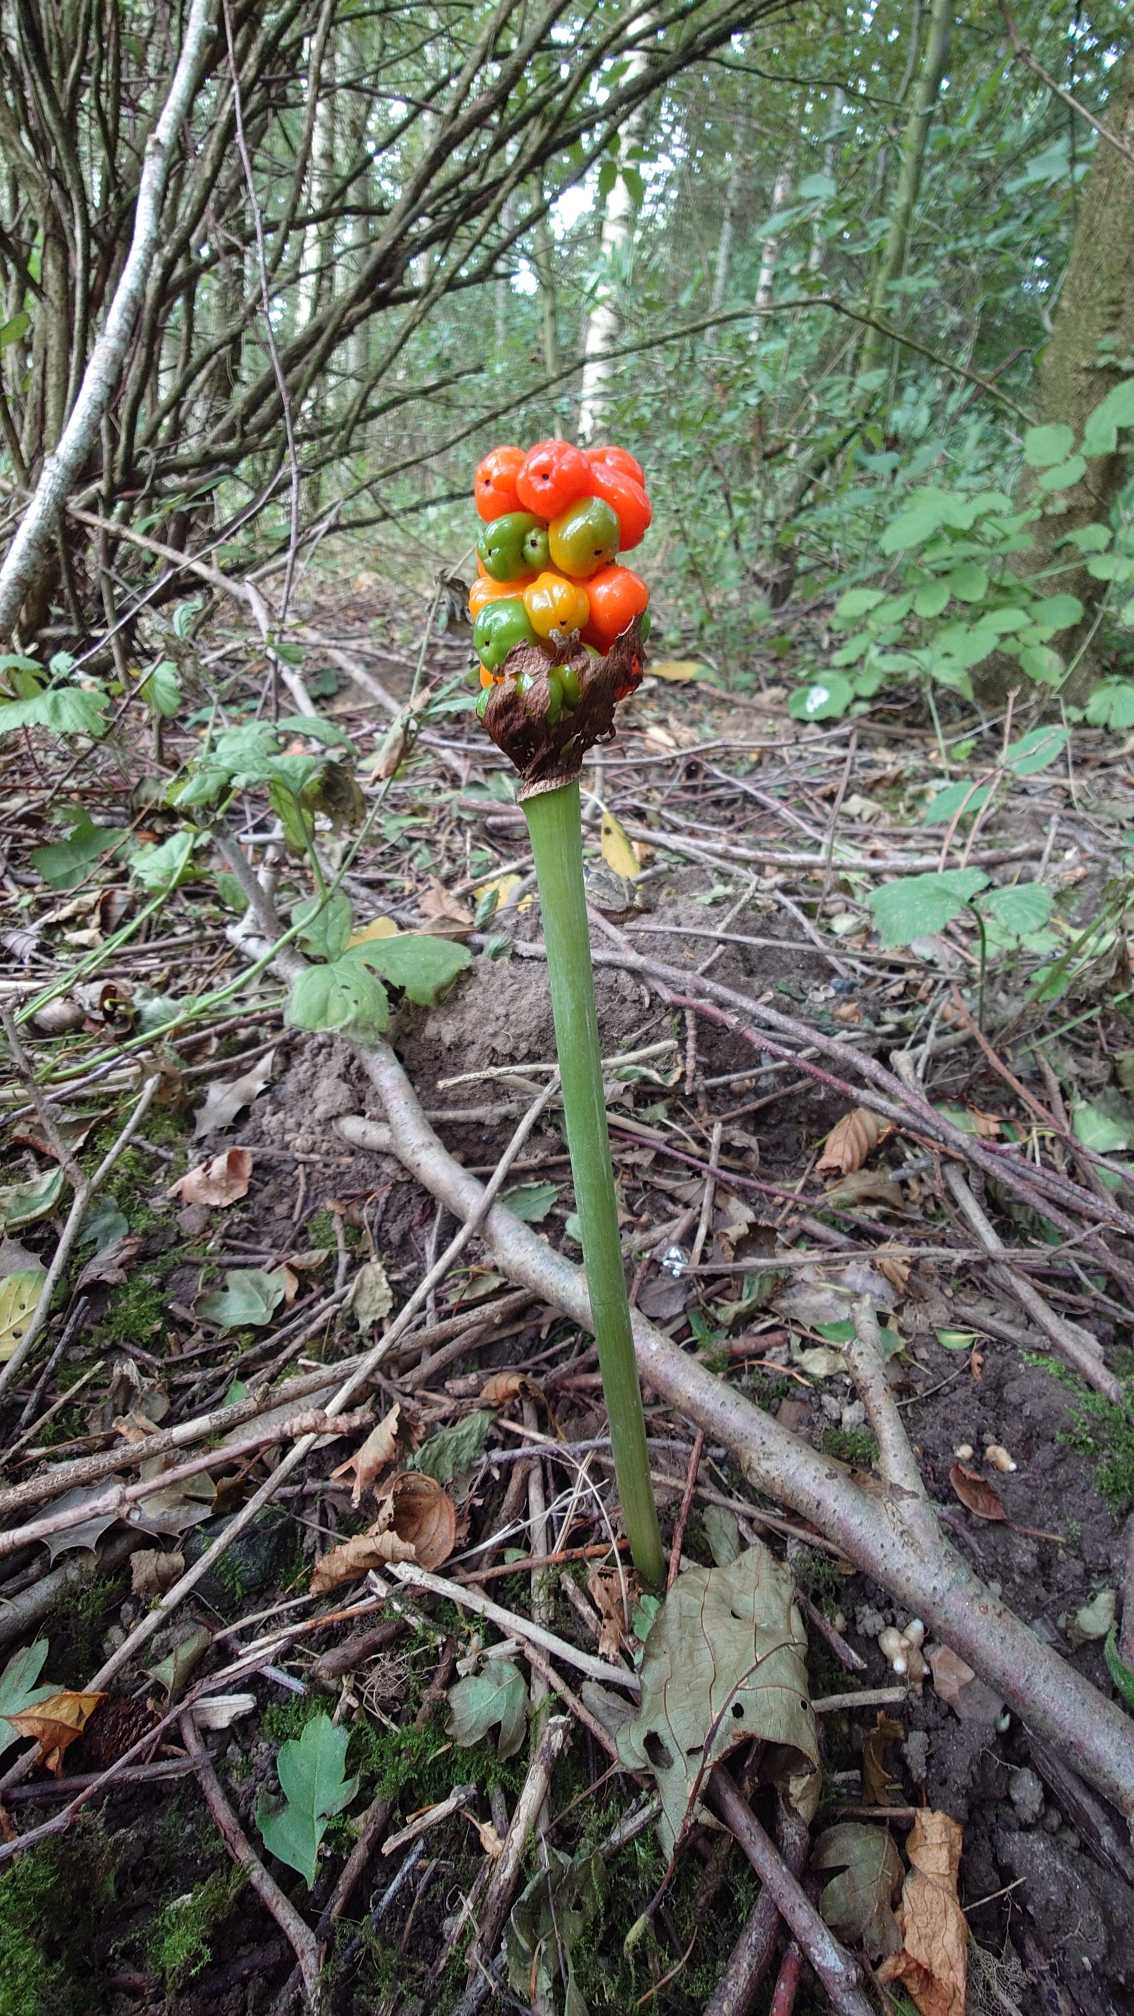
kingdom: Plantae
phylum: Tracheophyta
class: Liliopsida
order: Alismatales
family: Araceae
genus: Arum
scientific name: Arum
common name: Arumslægten
